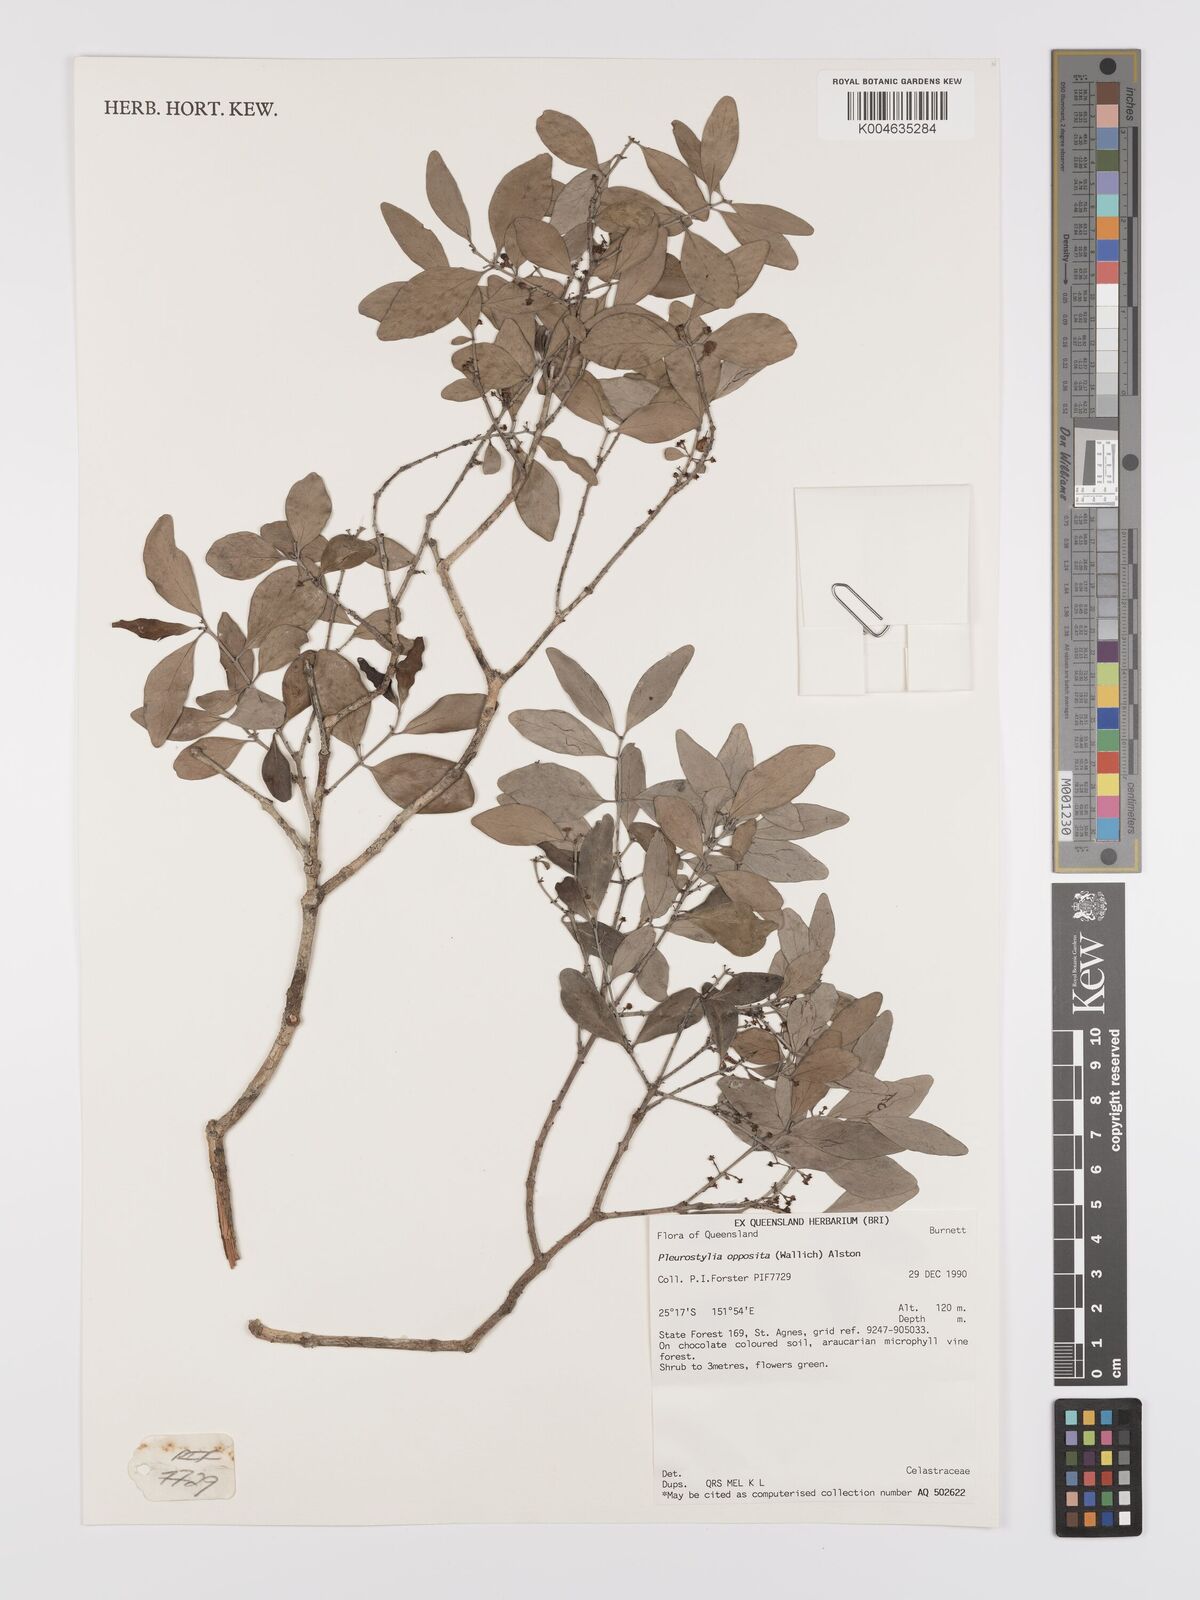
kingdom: Plantae
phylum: Tracheophyta
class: Magnoliopsida
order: Celastrales
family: Celastraceae
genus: Pleurostylia
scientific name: Pleurostylia opposita
